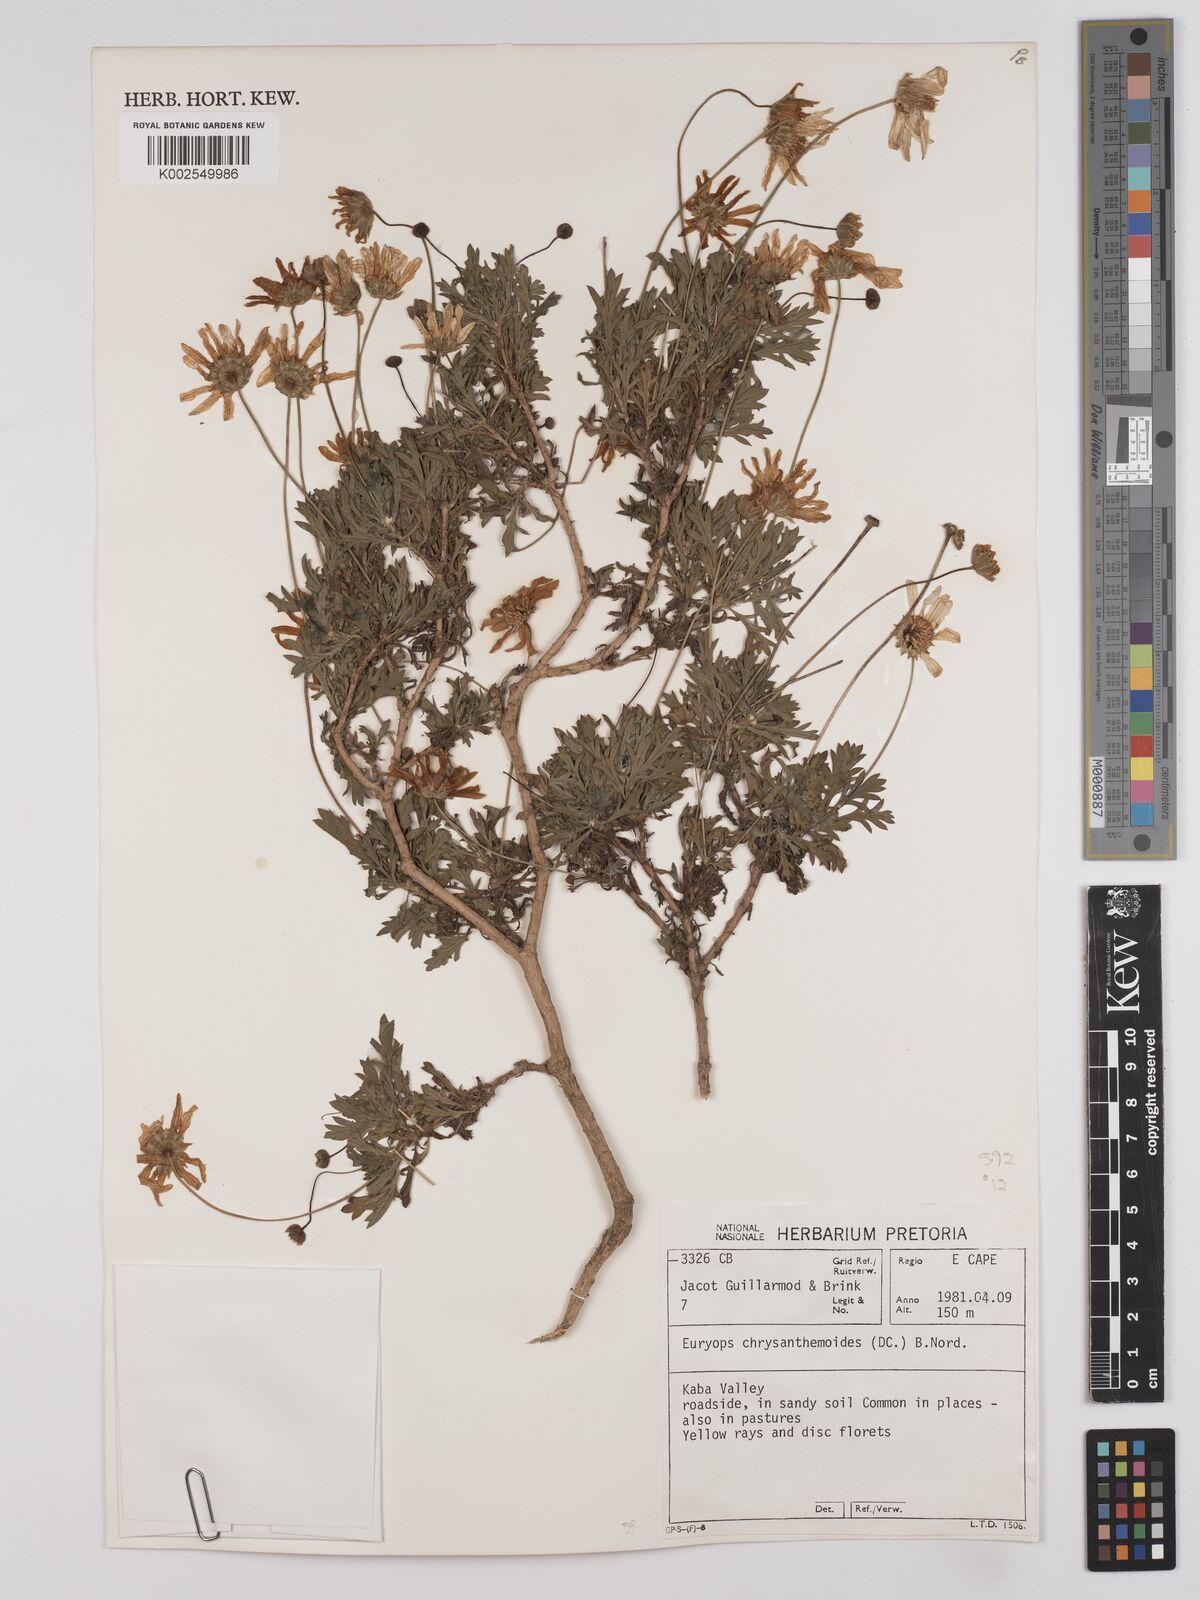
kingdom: Plantae
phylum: Tracheophyta
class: Magnoliopsida
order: Asterales
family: Asteraceae
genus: Euryops
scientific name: Euryops chrysanthemoides
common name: Bull's eye
